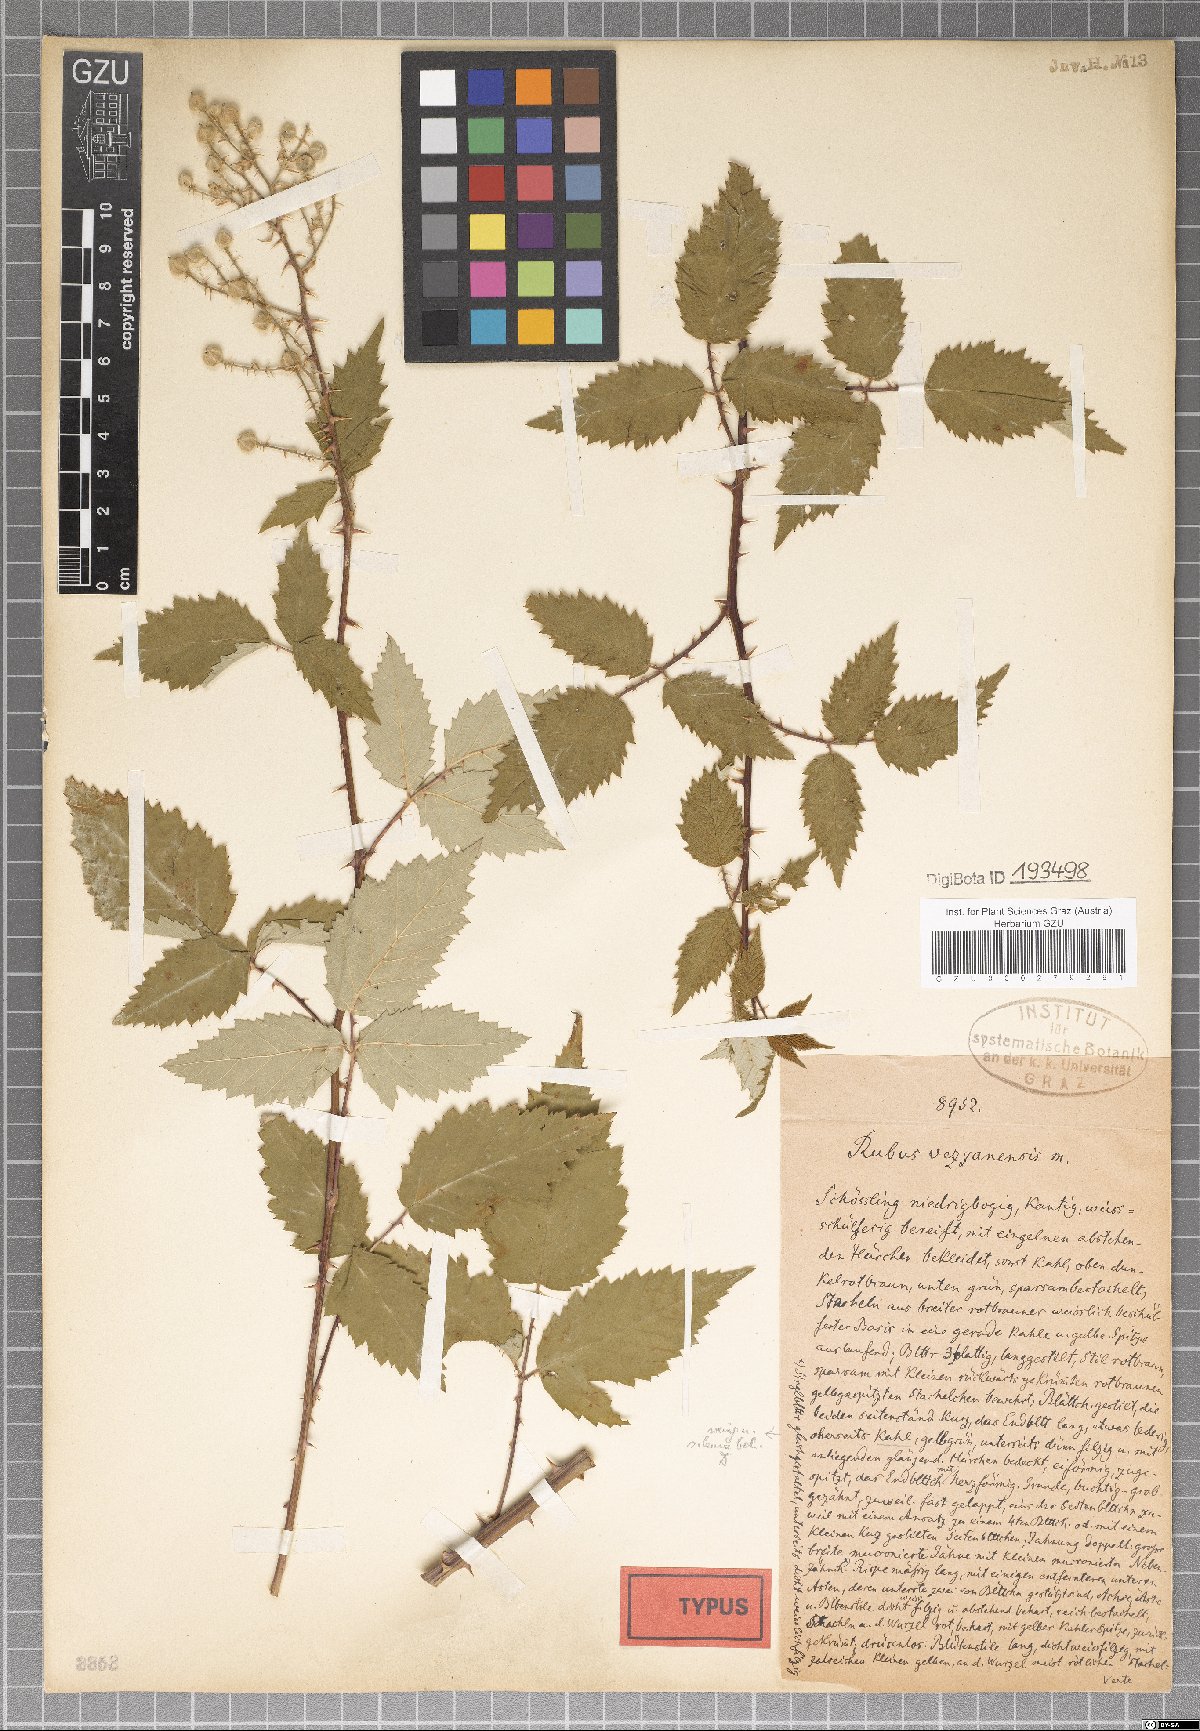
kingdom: Plantae
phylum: Tracheophyta
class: Magnoliopsida
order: Rosales
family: Rosaceae
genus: Rubus
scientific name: Rubus vezzanensis
